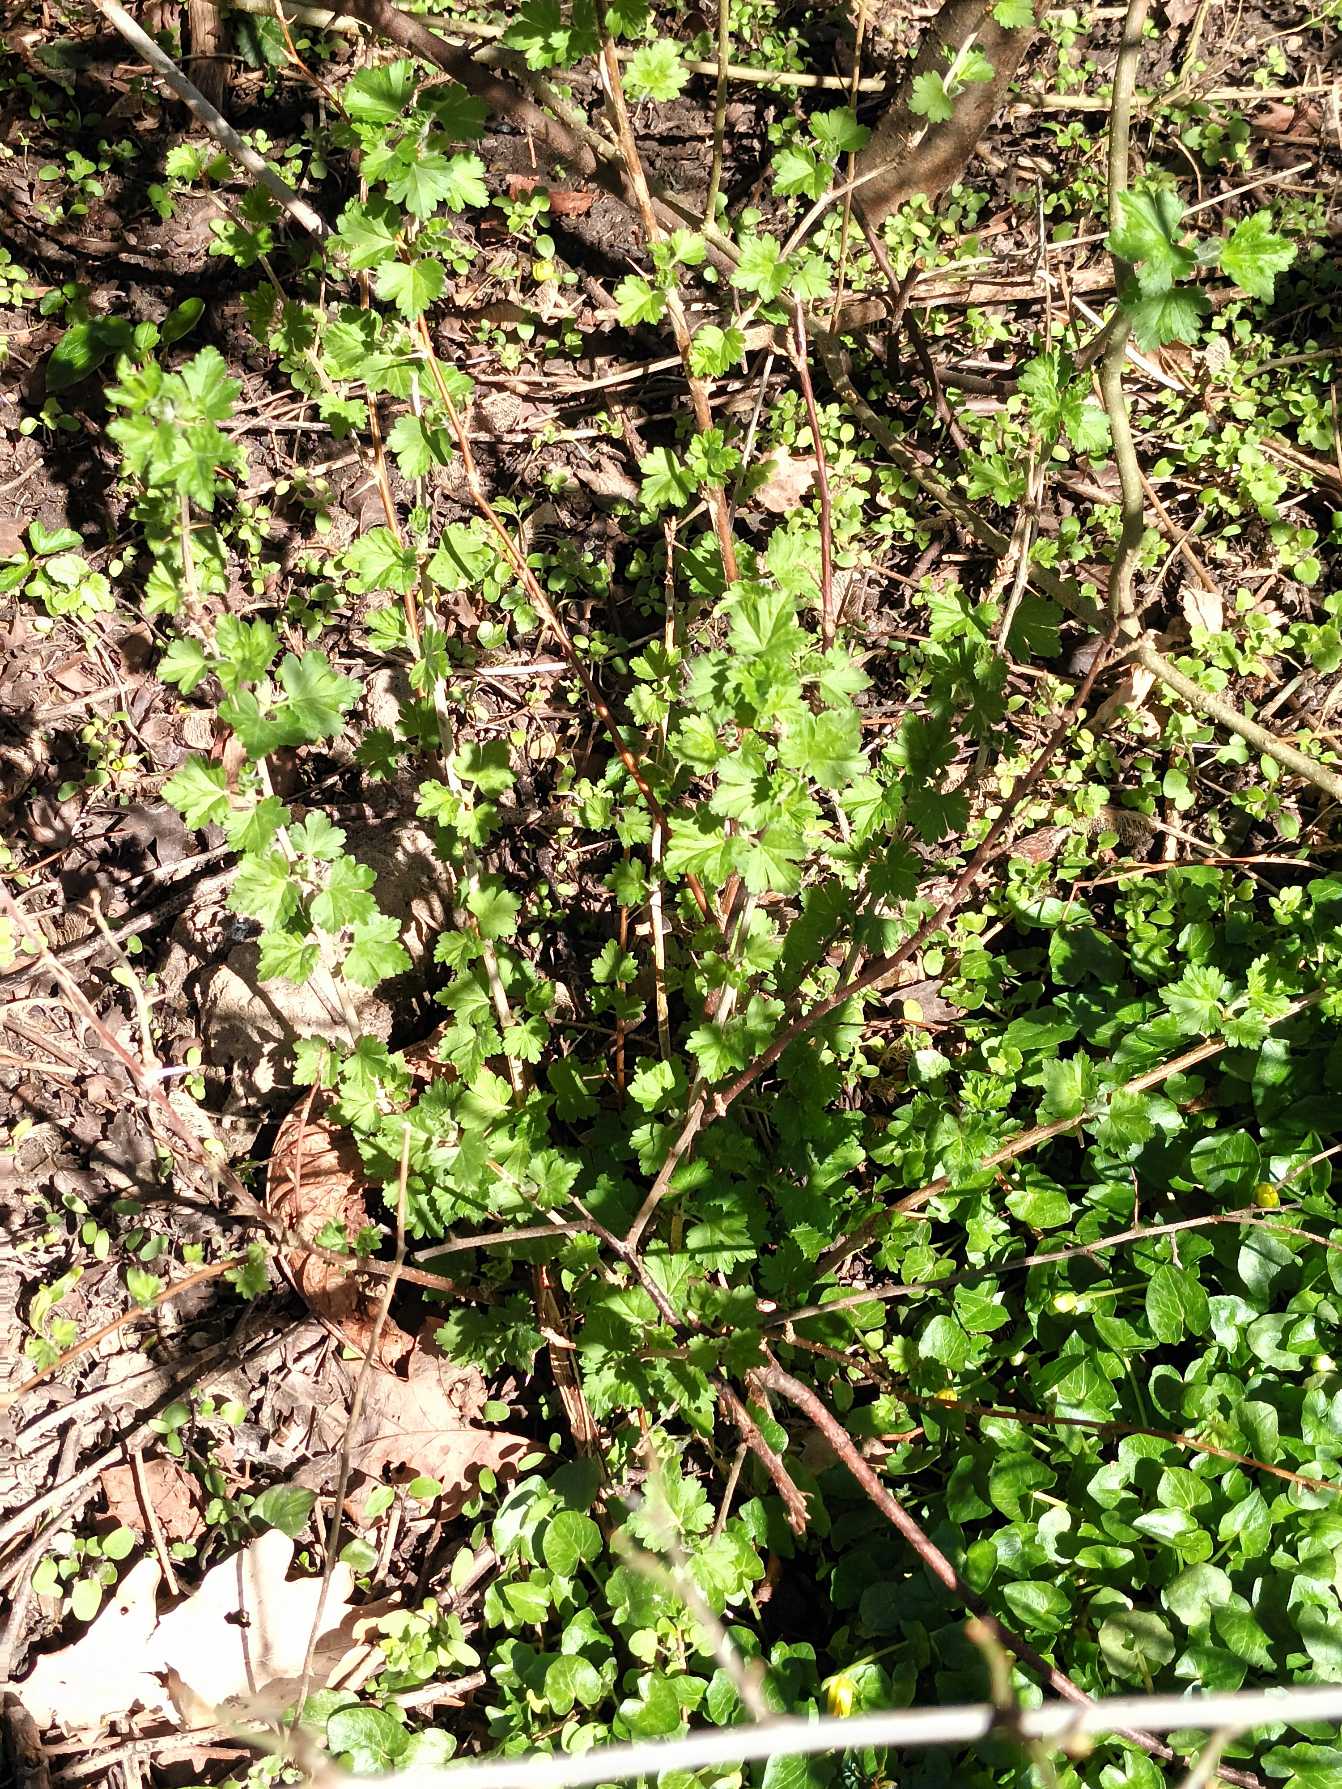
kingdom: Plantae
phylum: Tracheophyta
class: Magnoliopsida
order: Saxifragales
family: Grossulariaceae
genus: Ribes
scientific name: Ribes uva-crispa
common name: Stikkelsbær
